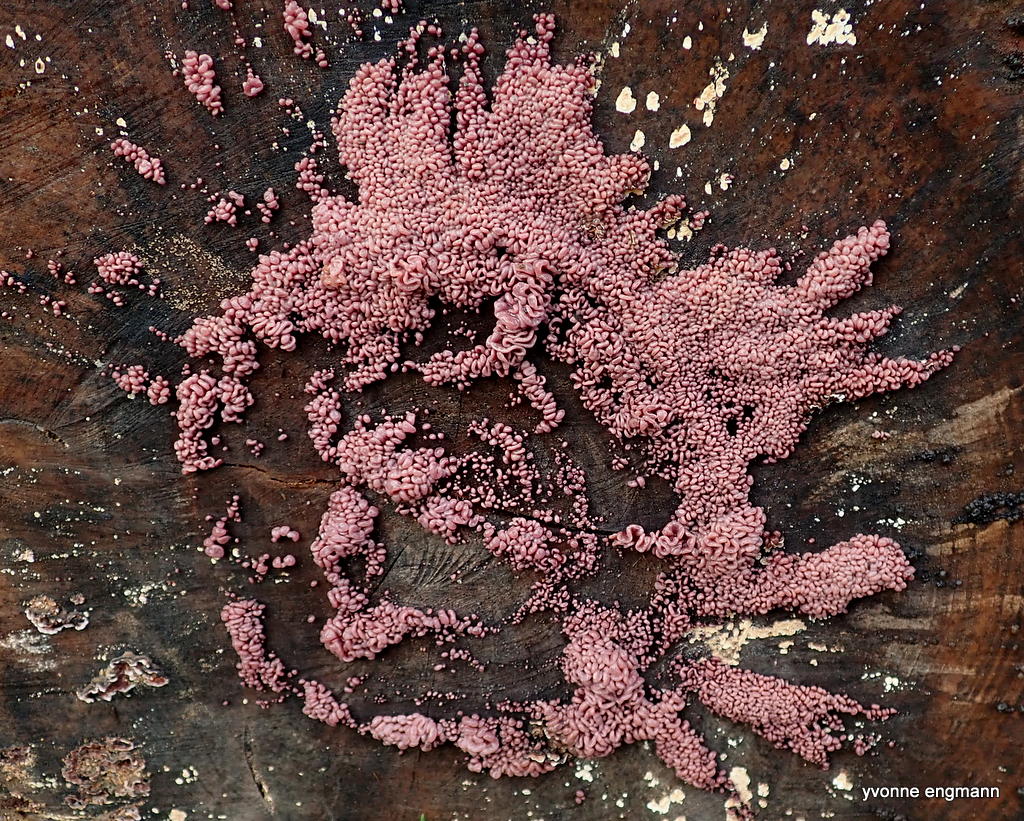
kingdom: Fungi
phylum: Ascomycota
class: Leotiomycetes
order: Helotiales
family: Gelatinodiscaceae
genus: Ascocoryne
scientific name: Ascocoryne sarcoides
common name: rødlilla sejskive
